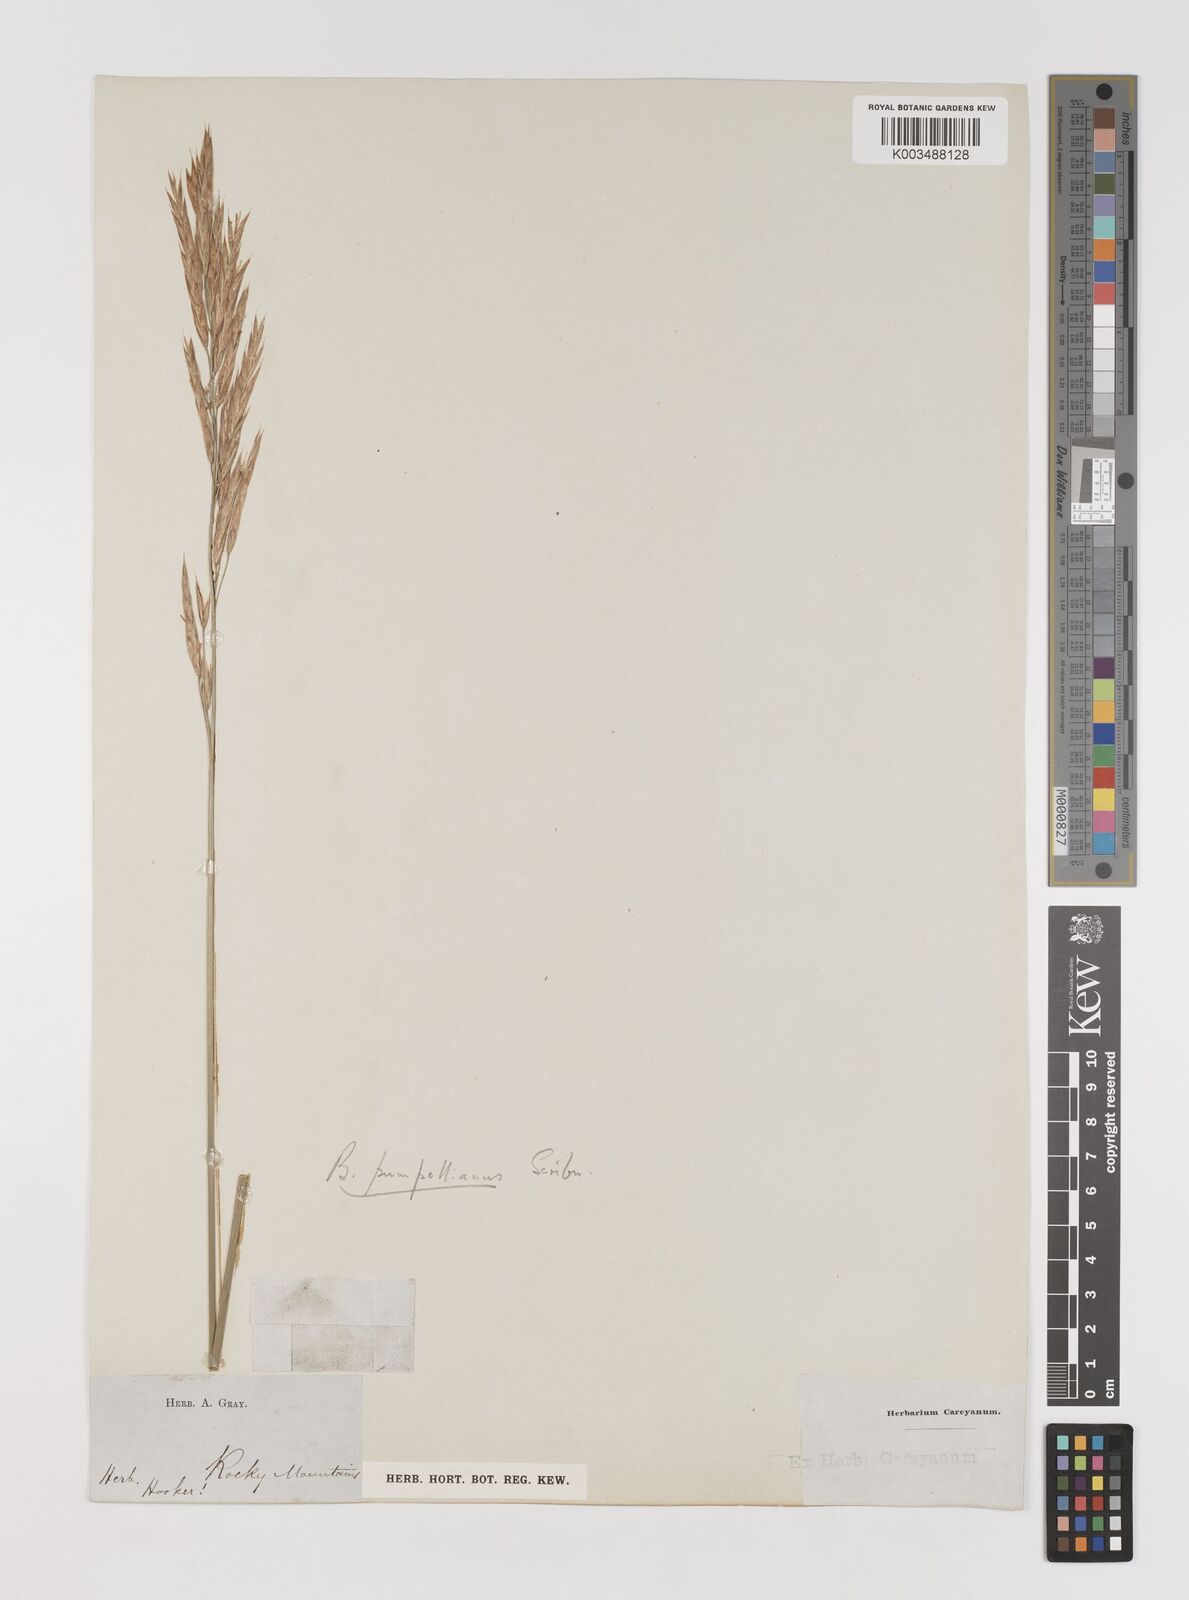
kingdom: Plantae
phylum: Tracheophyta
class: Liliopsida
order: Poales
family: Poaceae
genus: Bromus
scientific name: Bromus pumpellianus
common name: Pumpelly's brome
